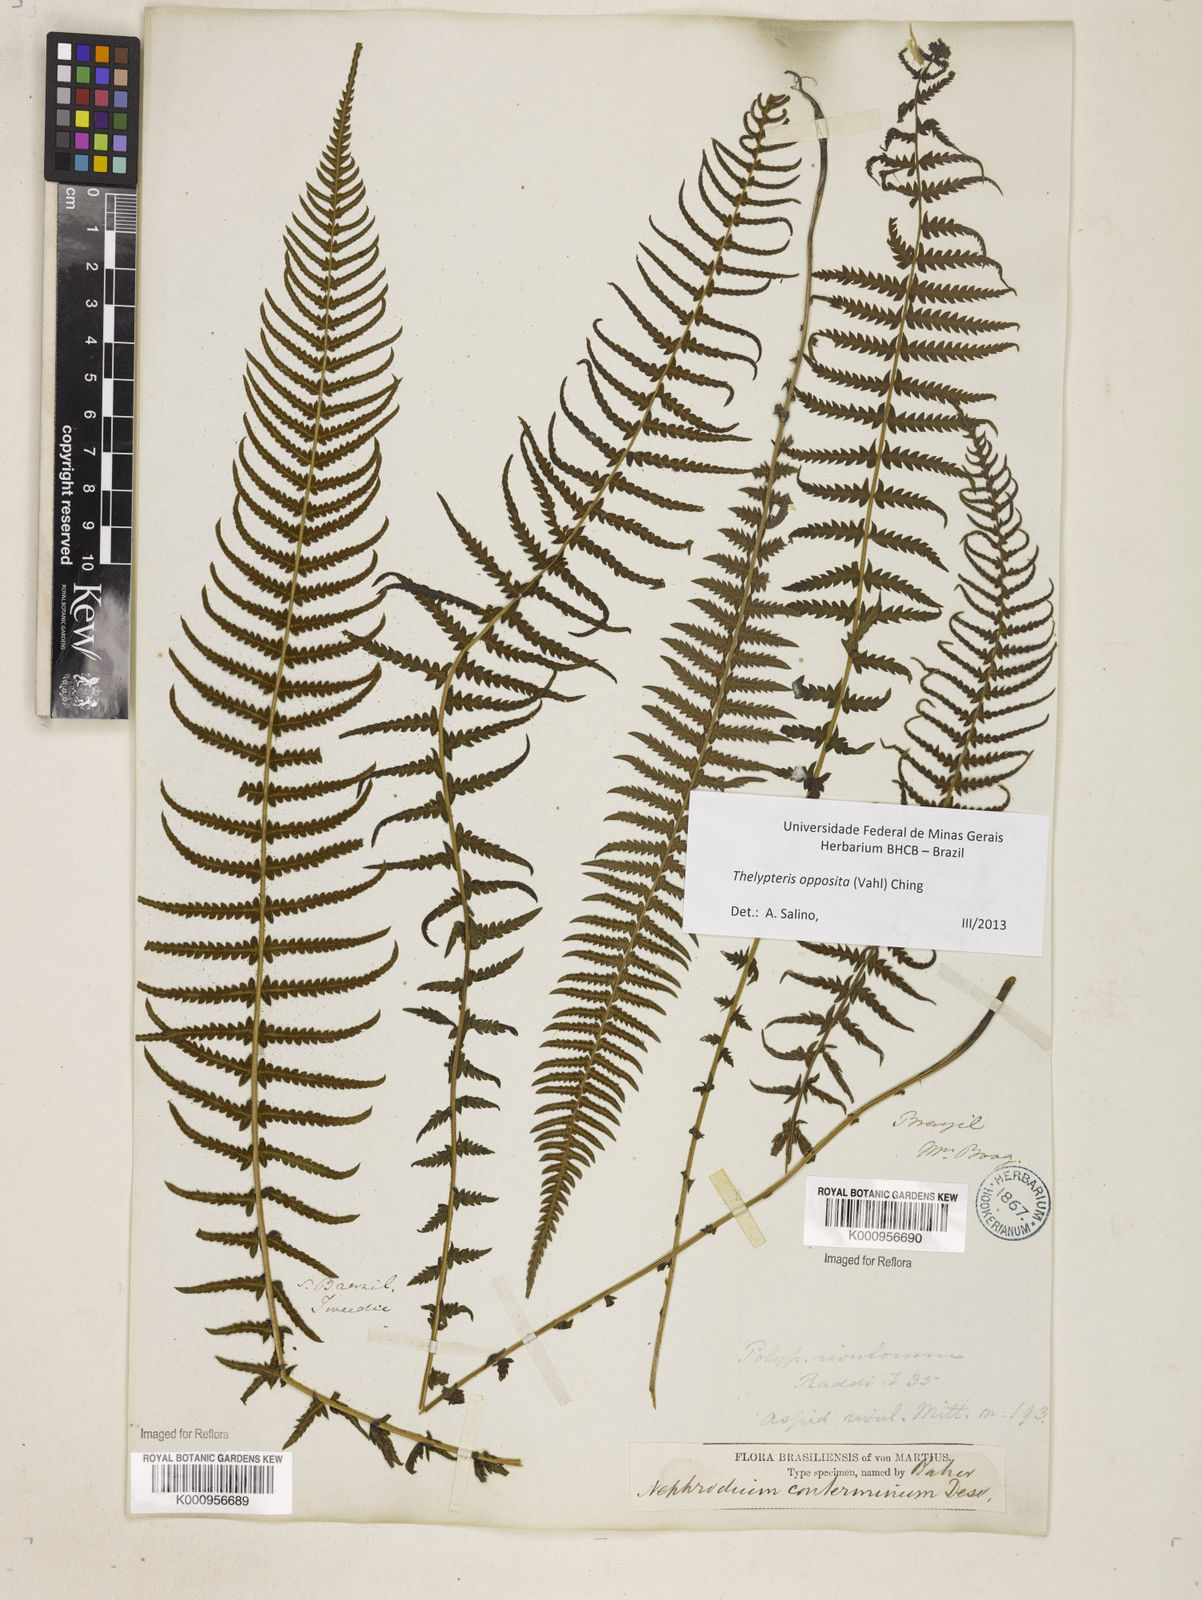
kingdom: Plantae
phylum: Tracheophyta
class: Polypodiopsida
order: Polypodiales
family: Thelypteridaceae
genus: Amauropelta
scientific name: Amauropelta opposita
